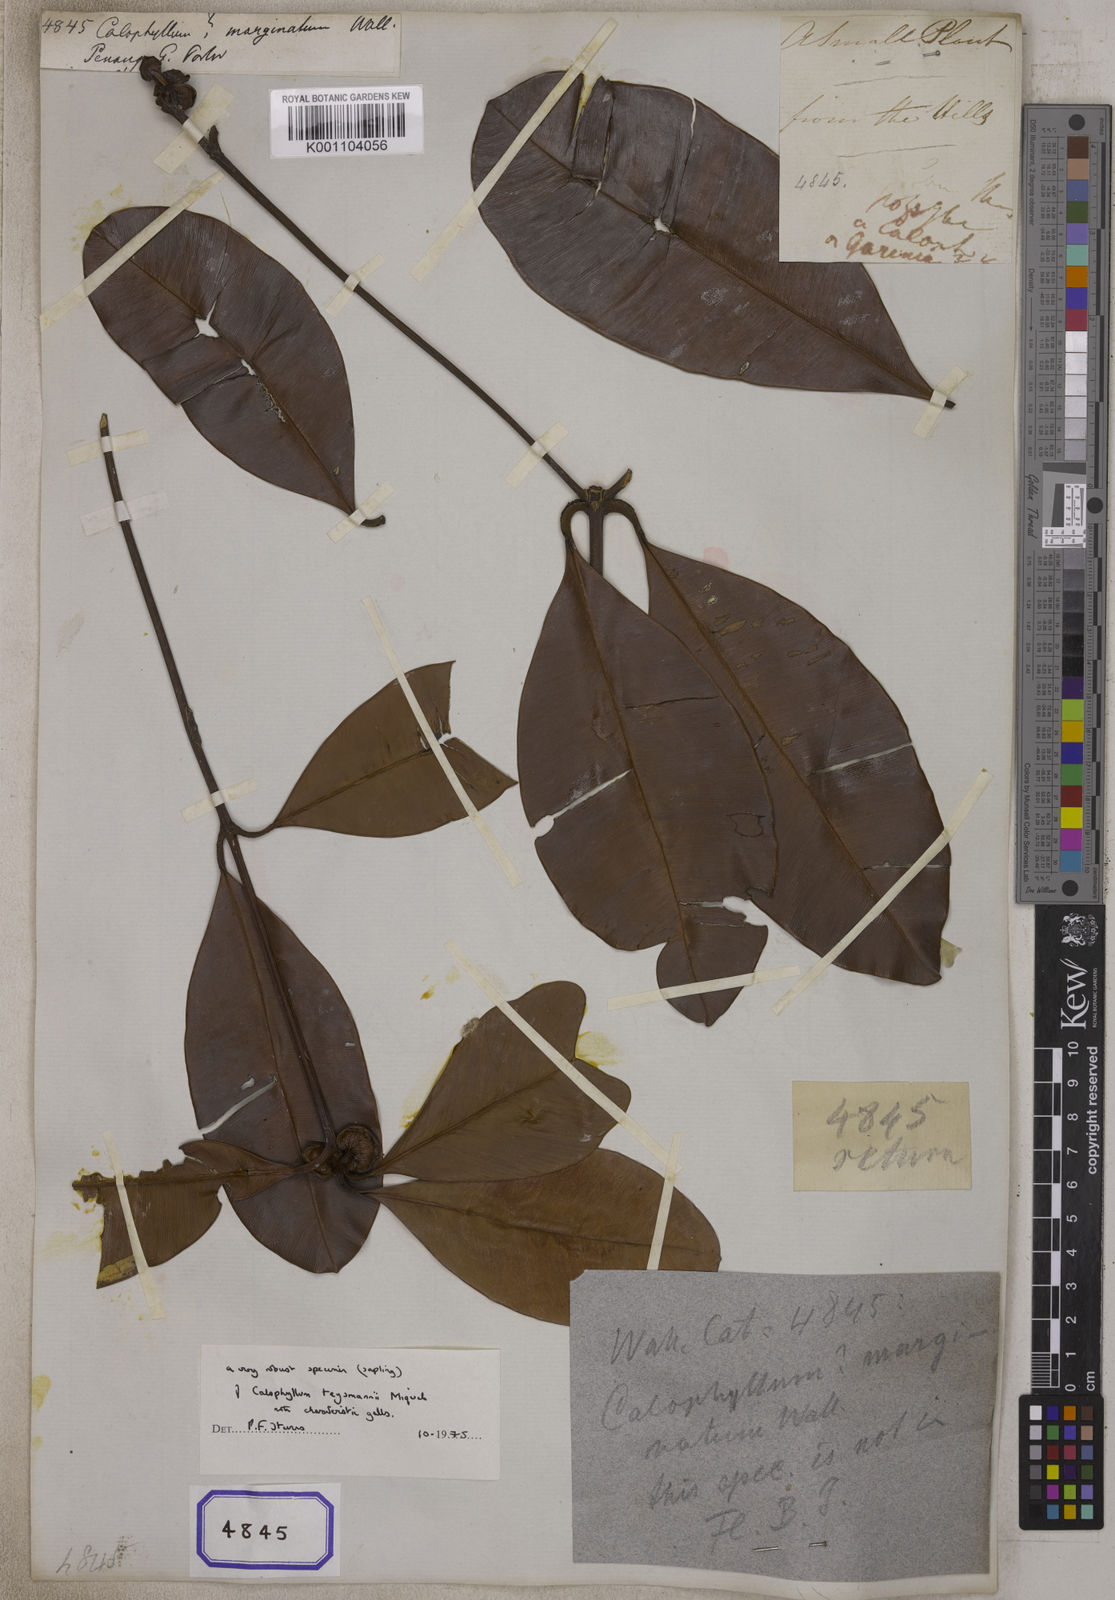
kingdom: Plantae
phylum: Tracheophyta
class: Magnoliopsida
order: Malpighiales
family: Calophyllaceae
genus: Calophyllum
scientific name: Calophyllum
